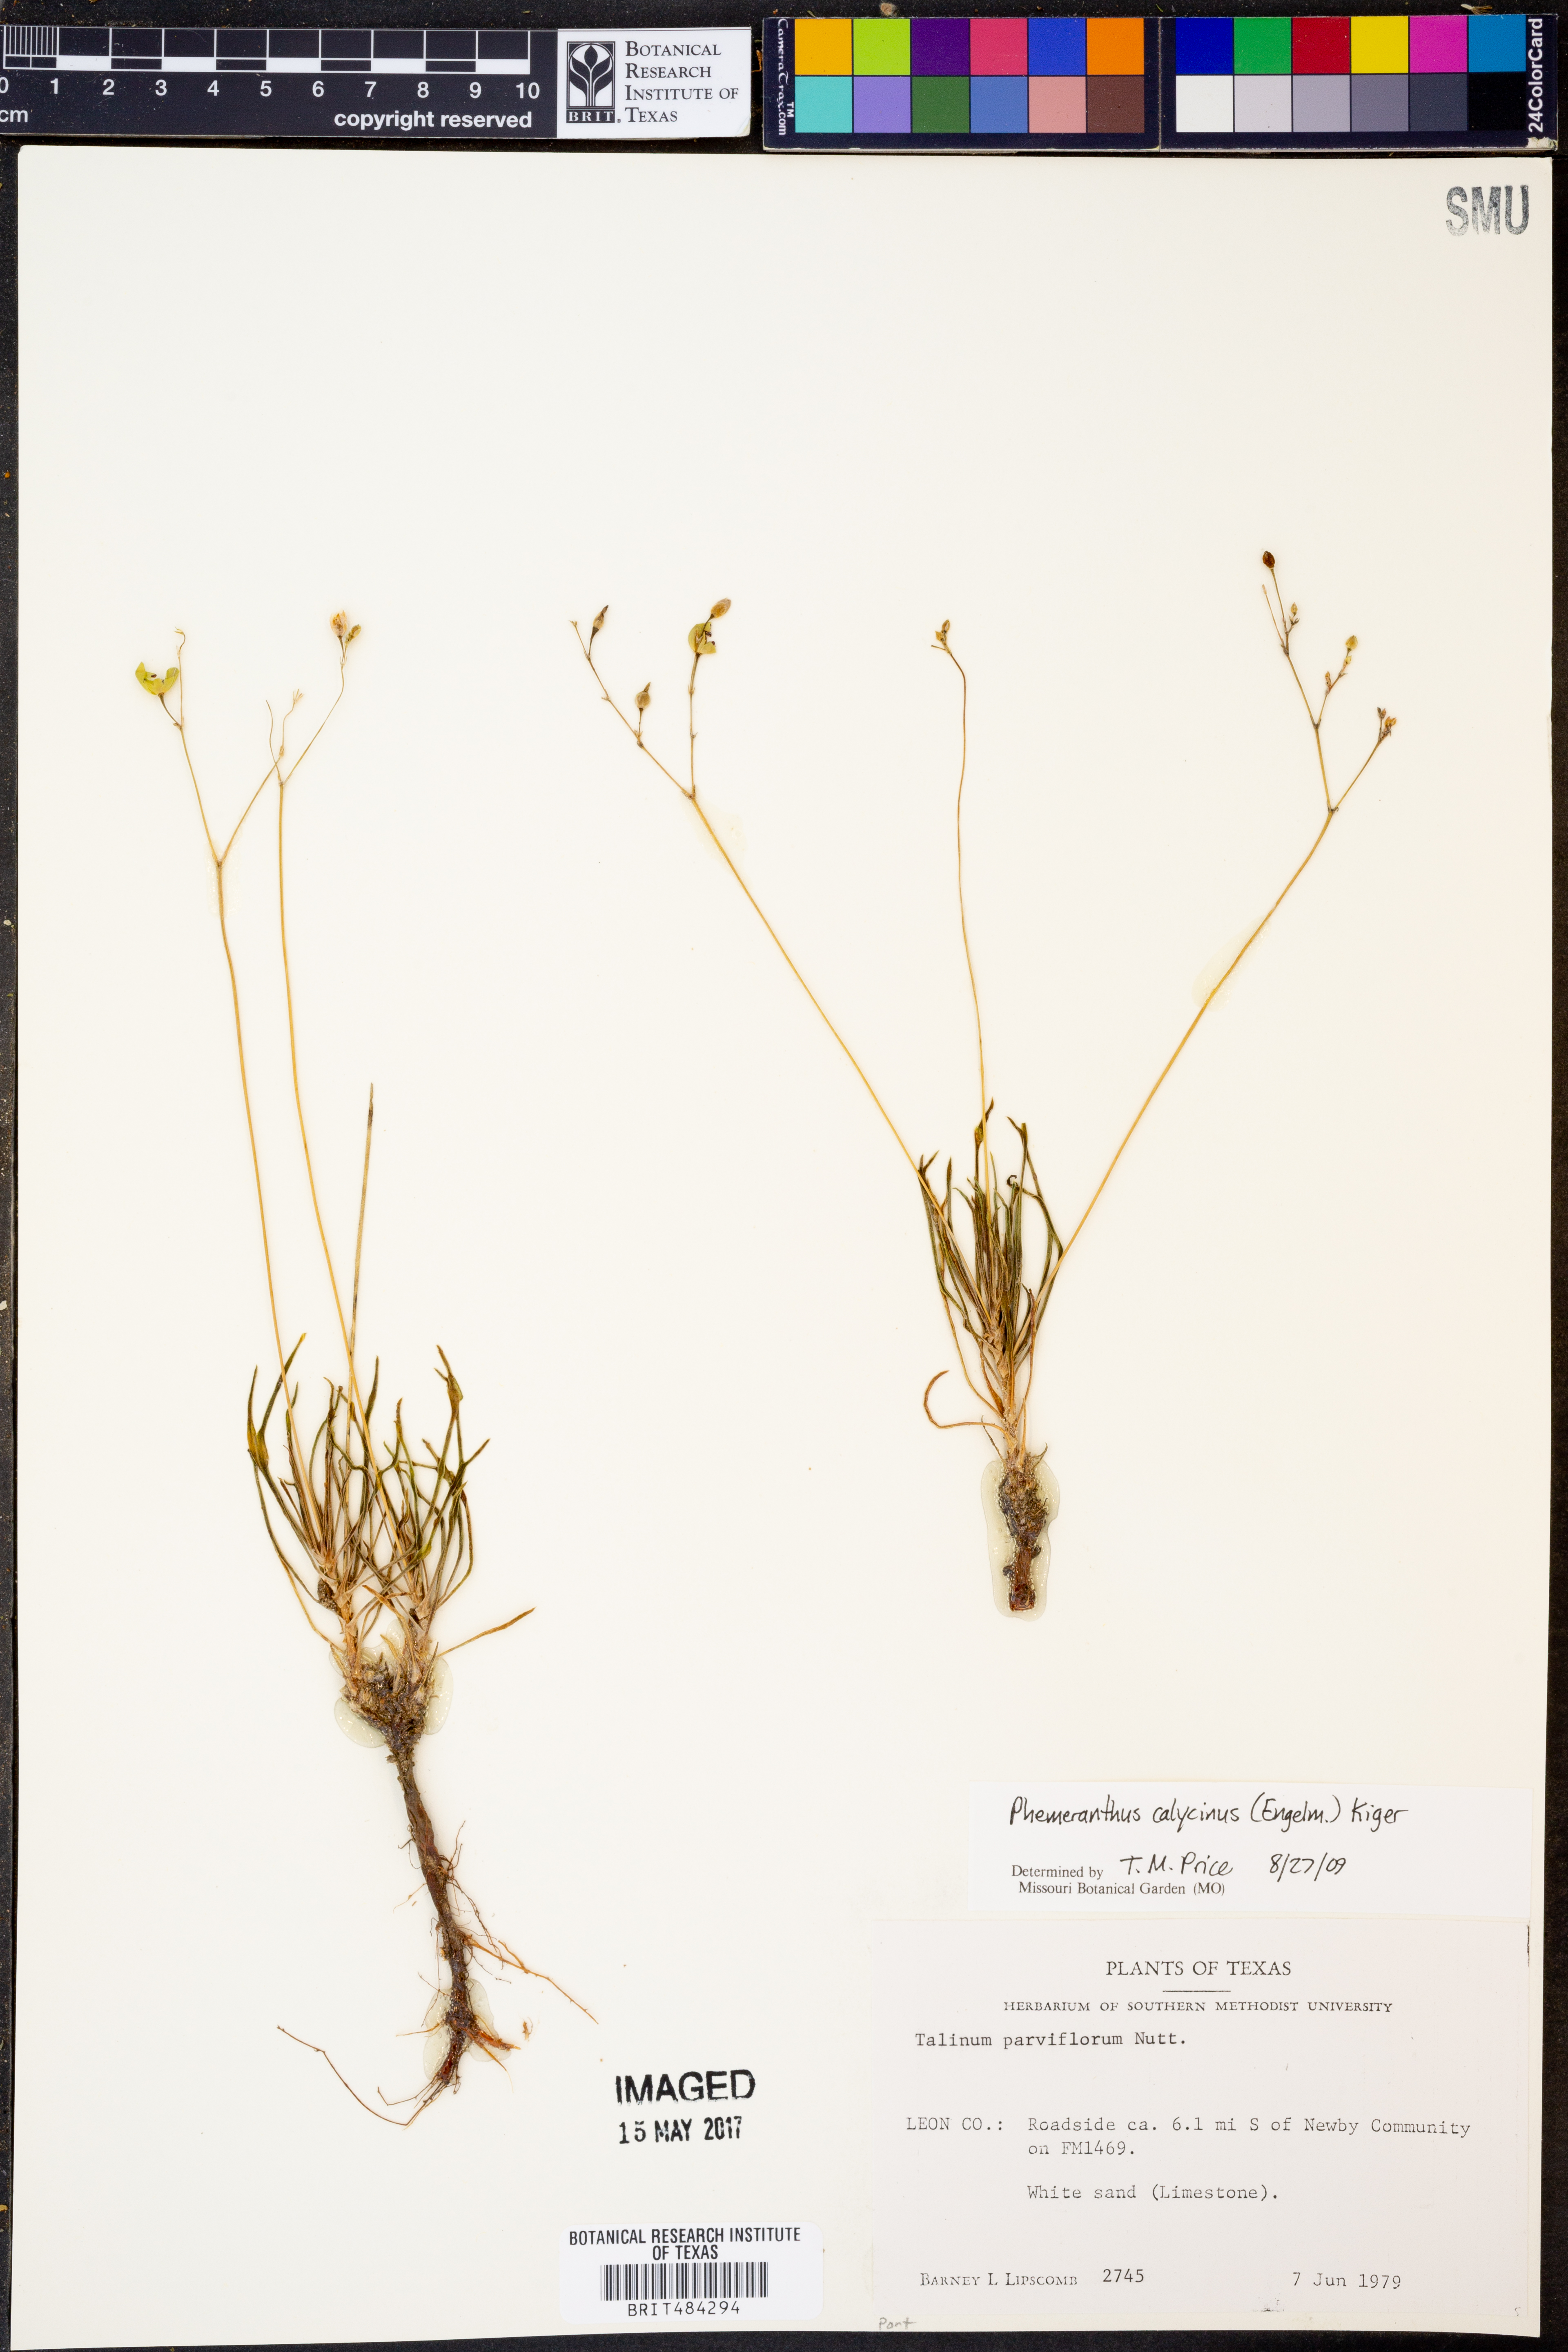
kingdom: Plantae
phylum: Tracheophyta
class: Magnoliopsida
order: Caryophyllales
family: Montiaceae
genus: Phemeranthus
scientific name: Phemeranthus calycinus
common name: Largeflower fameflower
